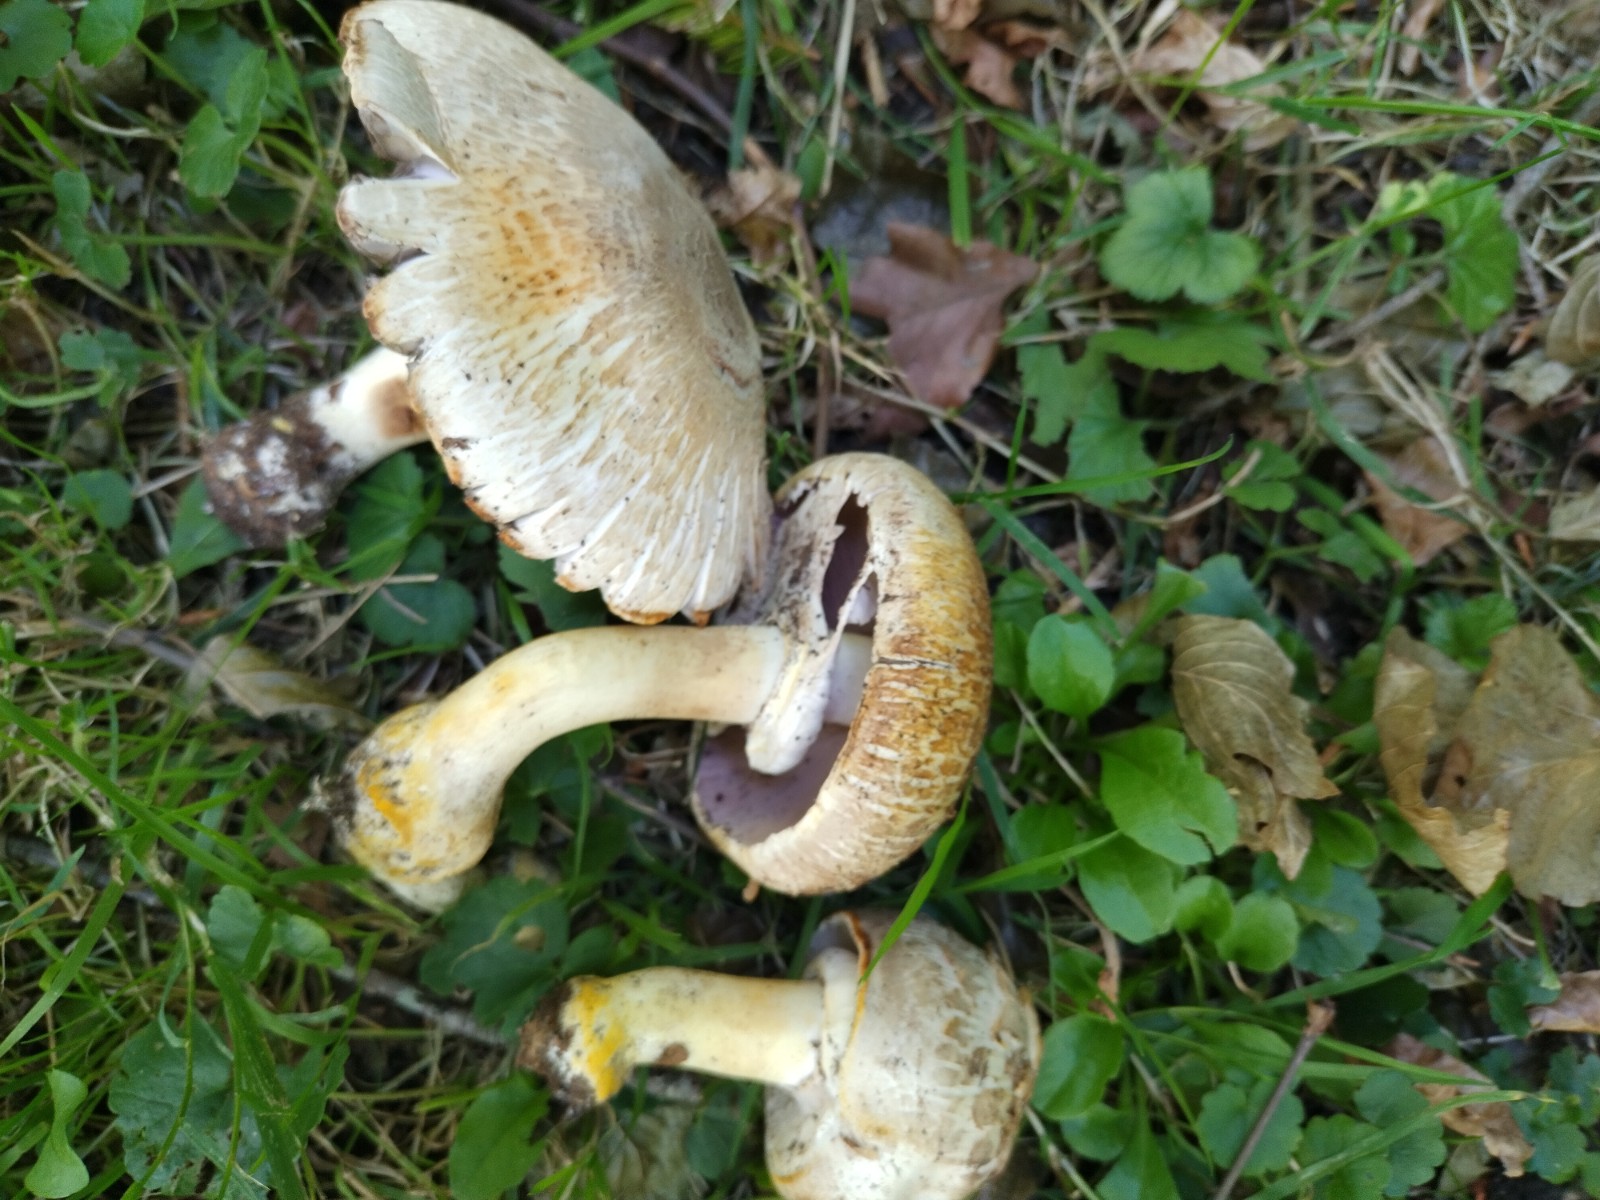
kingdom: Fungi
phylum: Basidiomycota
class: Agaricomycetes
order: Agaricales
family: Agaricaceae
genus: Agaricus
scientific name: Agaricus xanthodermus
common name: karbol-champignon
